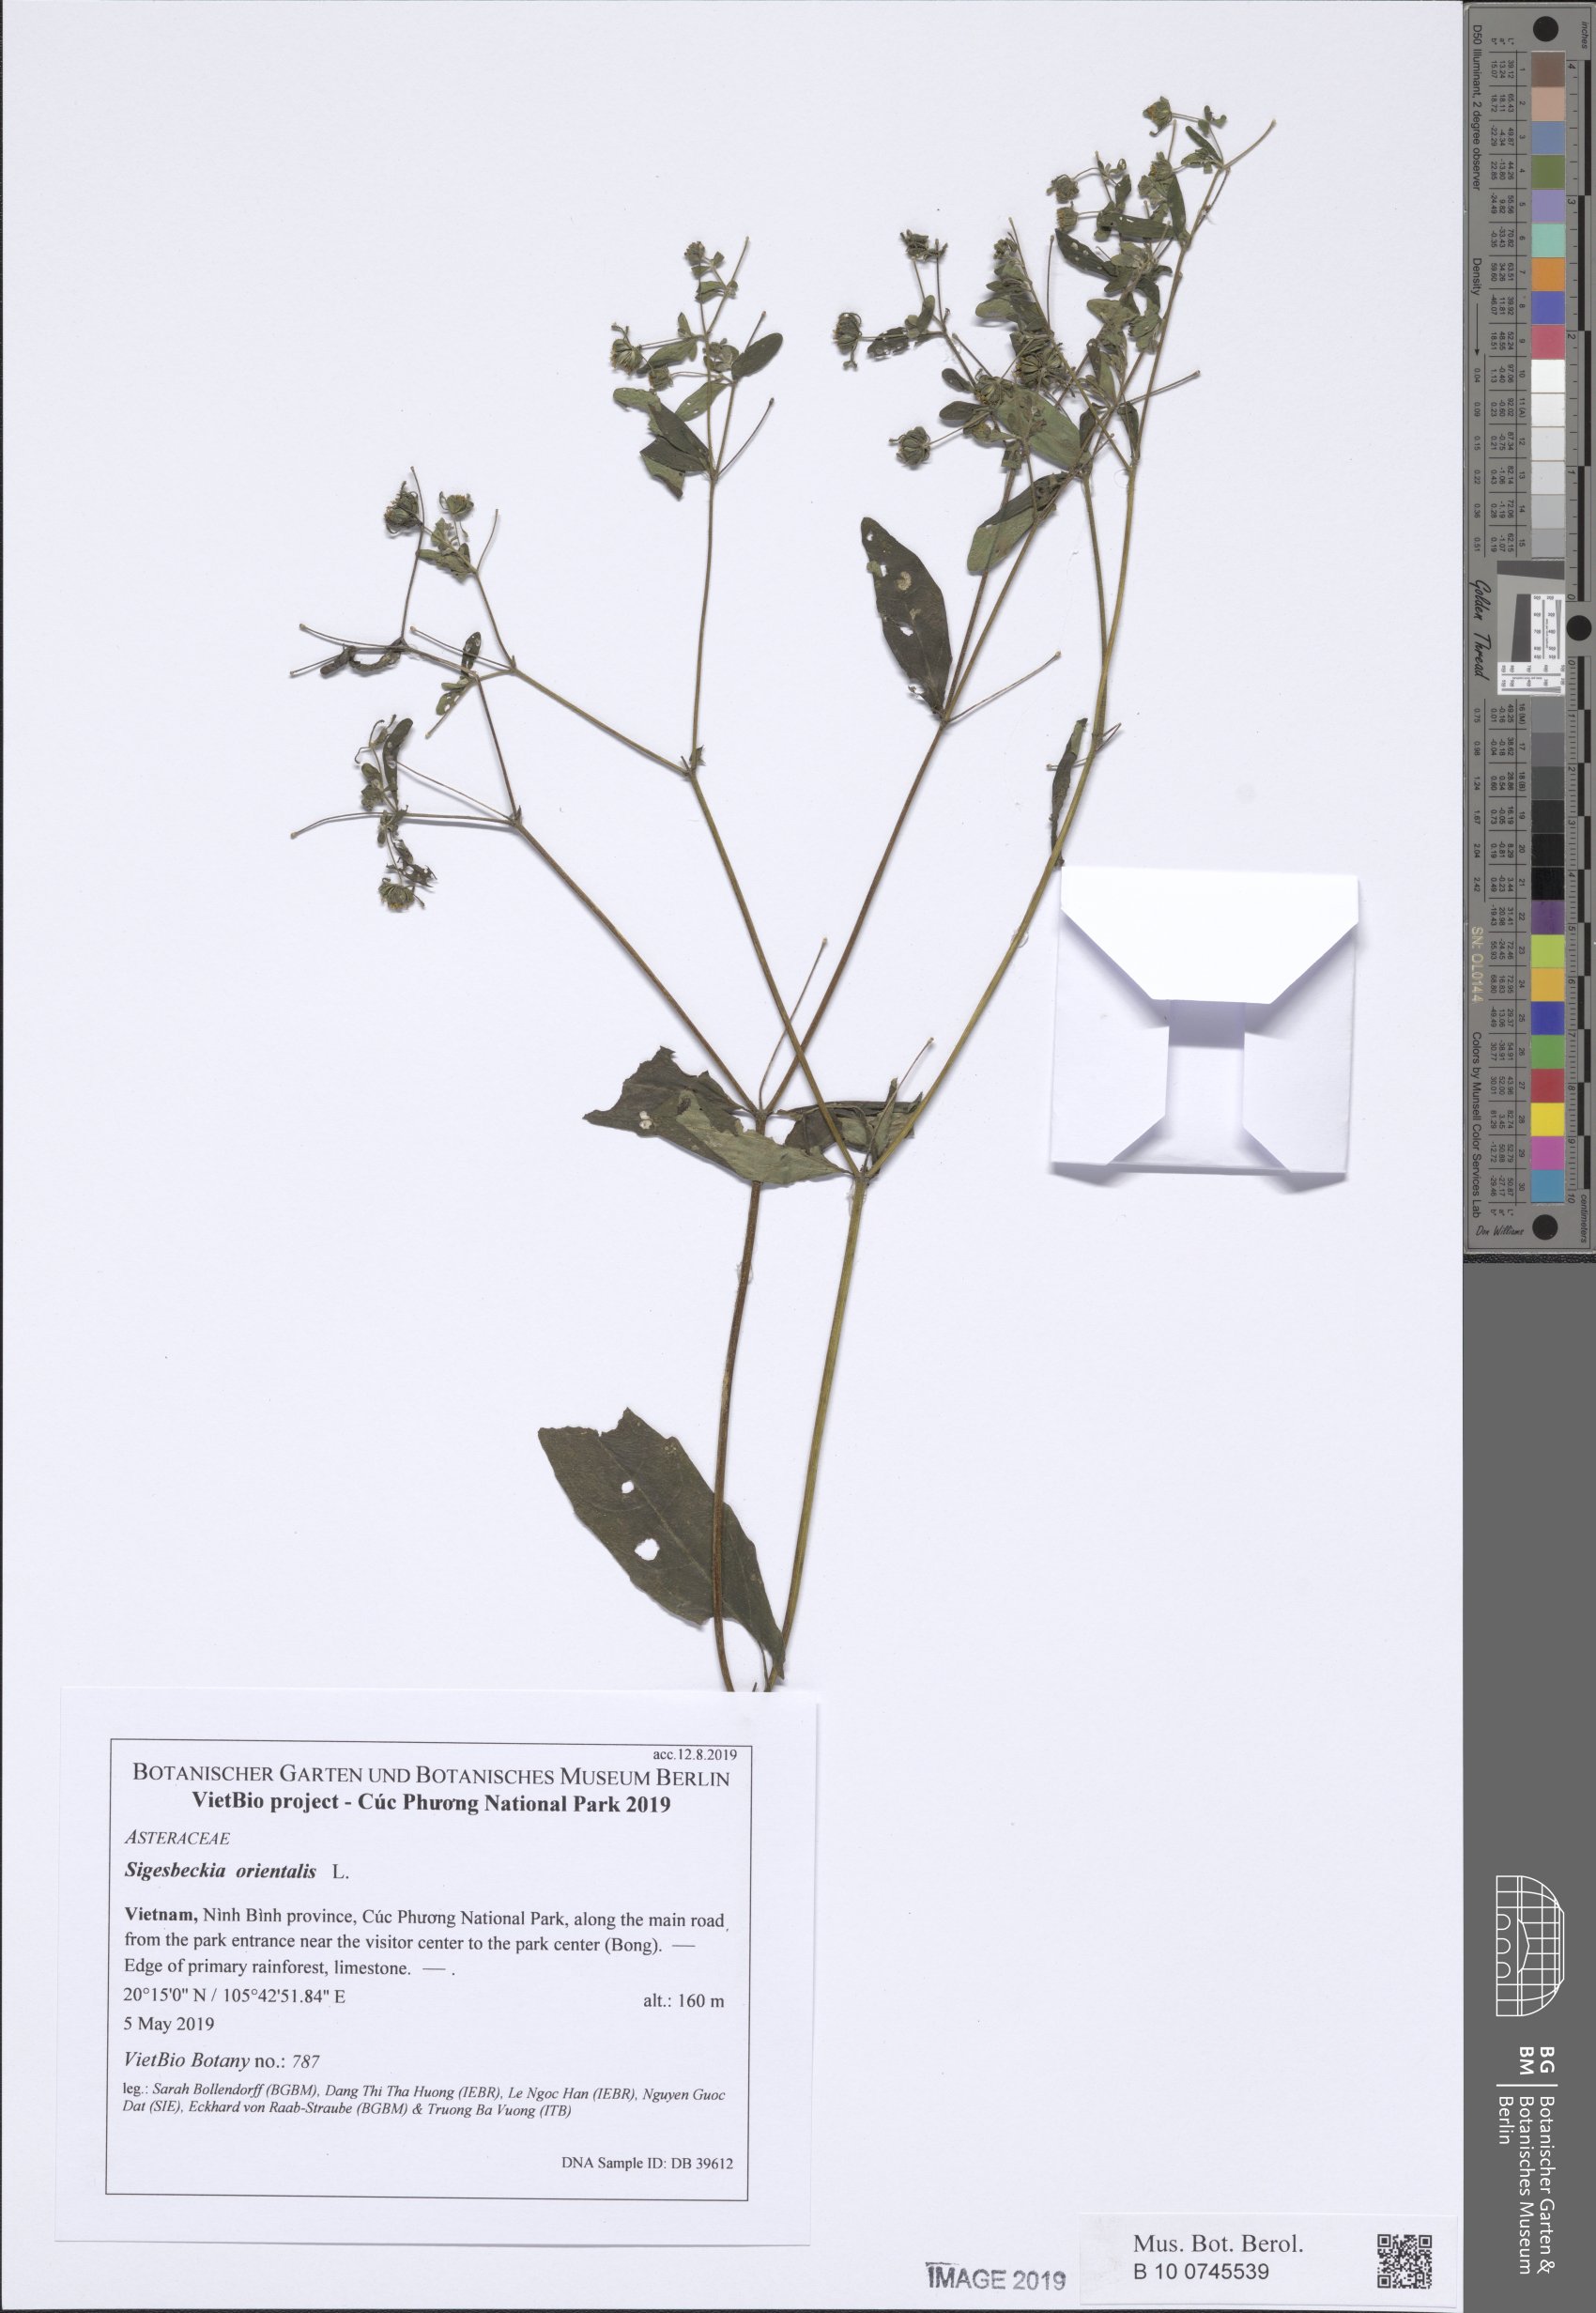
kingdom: Plantae
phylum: Tracheophyta
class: Magnoliopsida
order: Asterales
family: Asteraceae
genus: Sigesbeckia
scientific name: Sigesbeckia orientalis
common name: Eastern st paul's-wort
